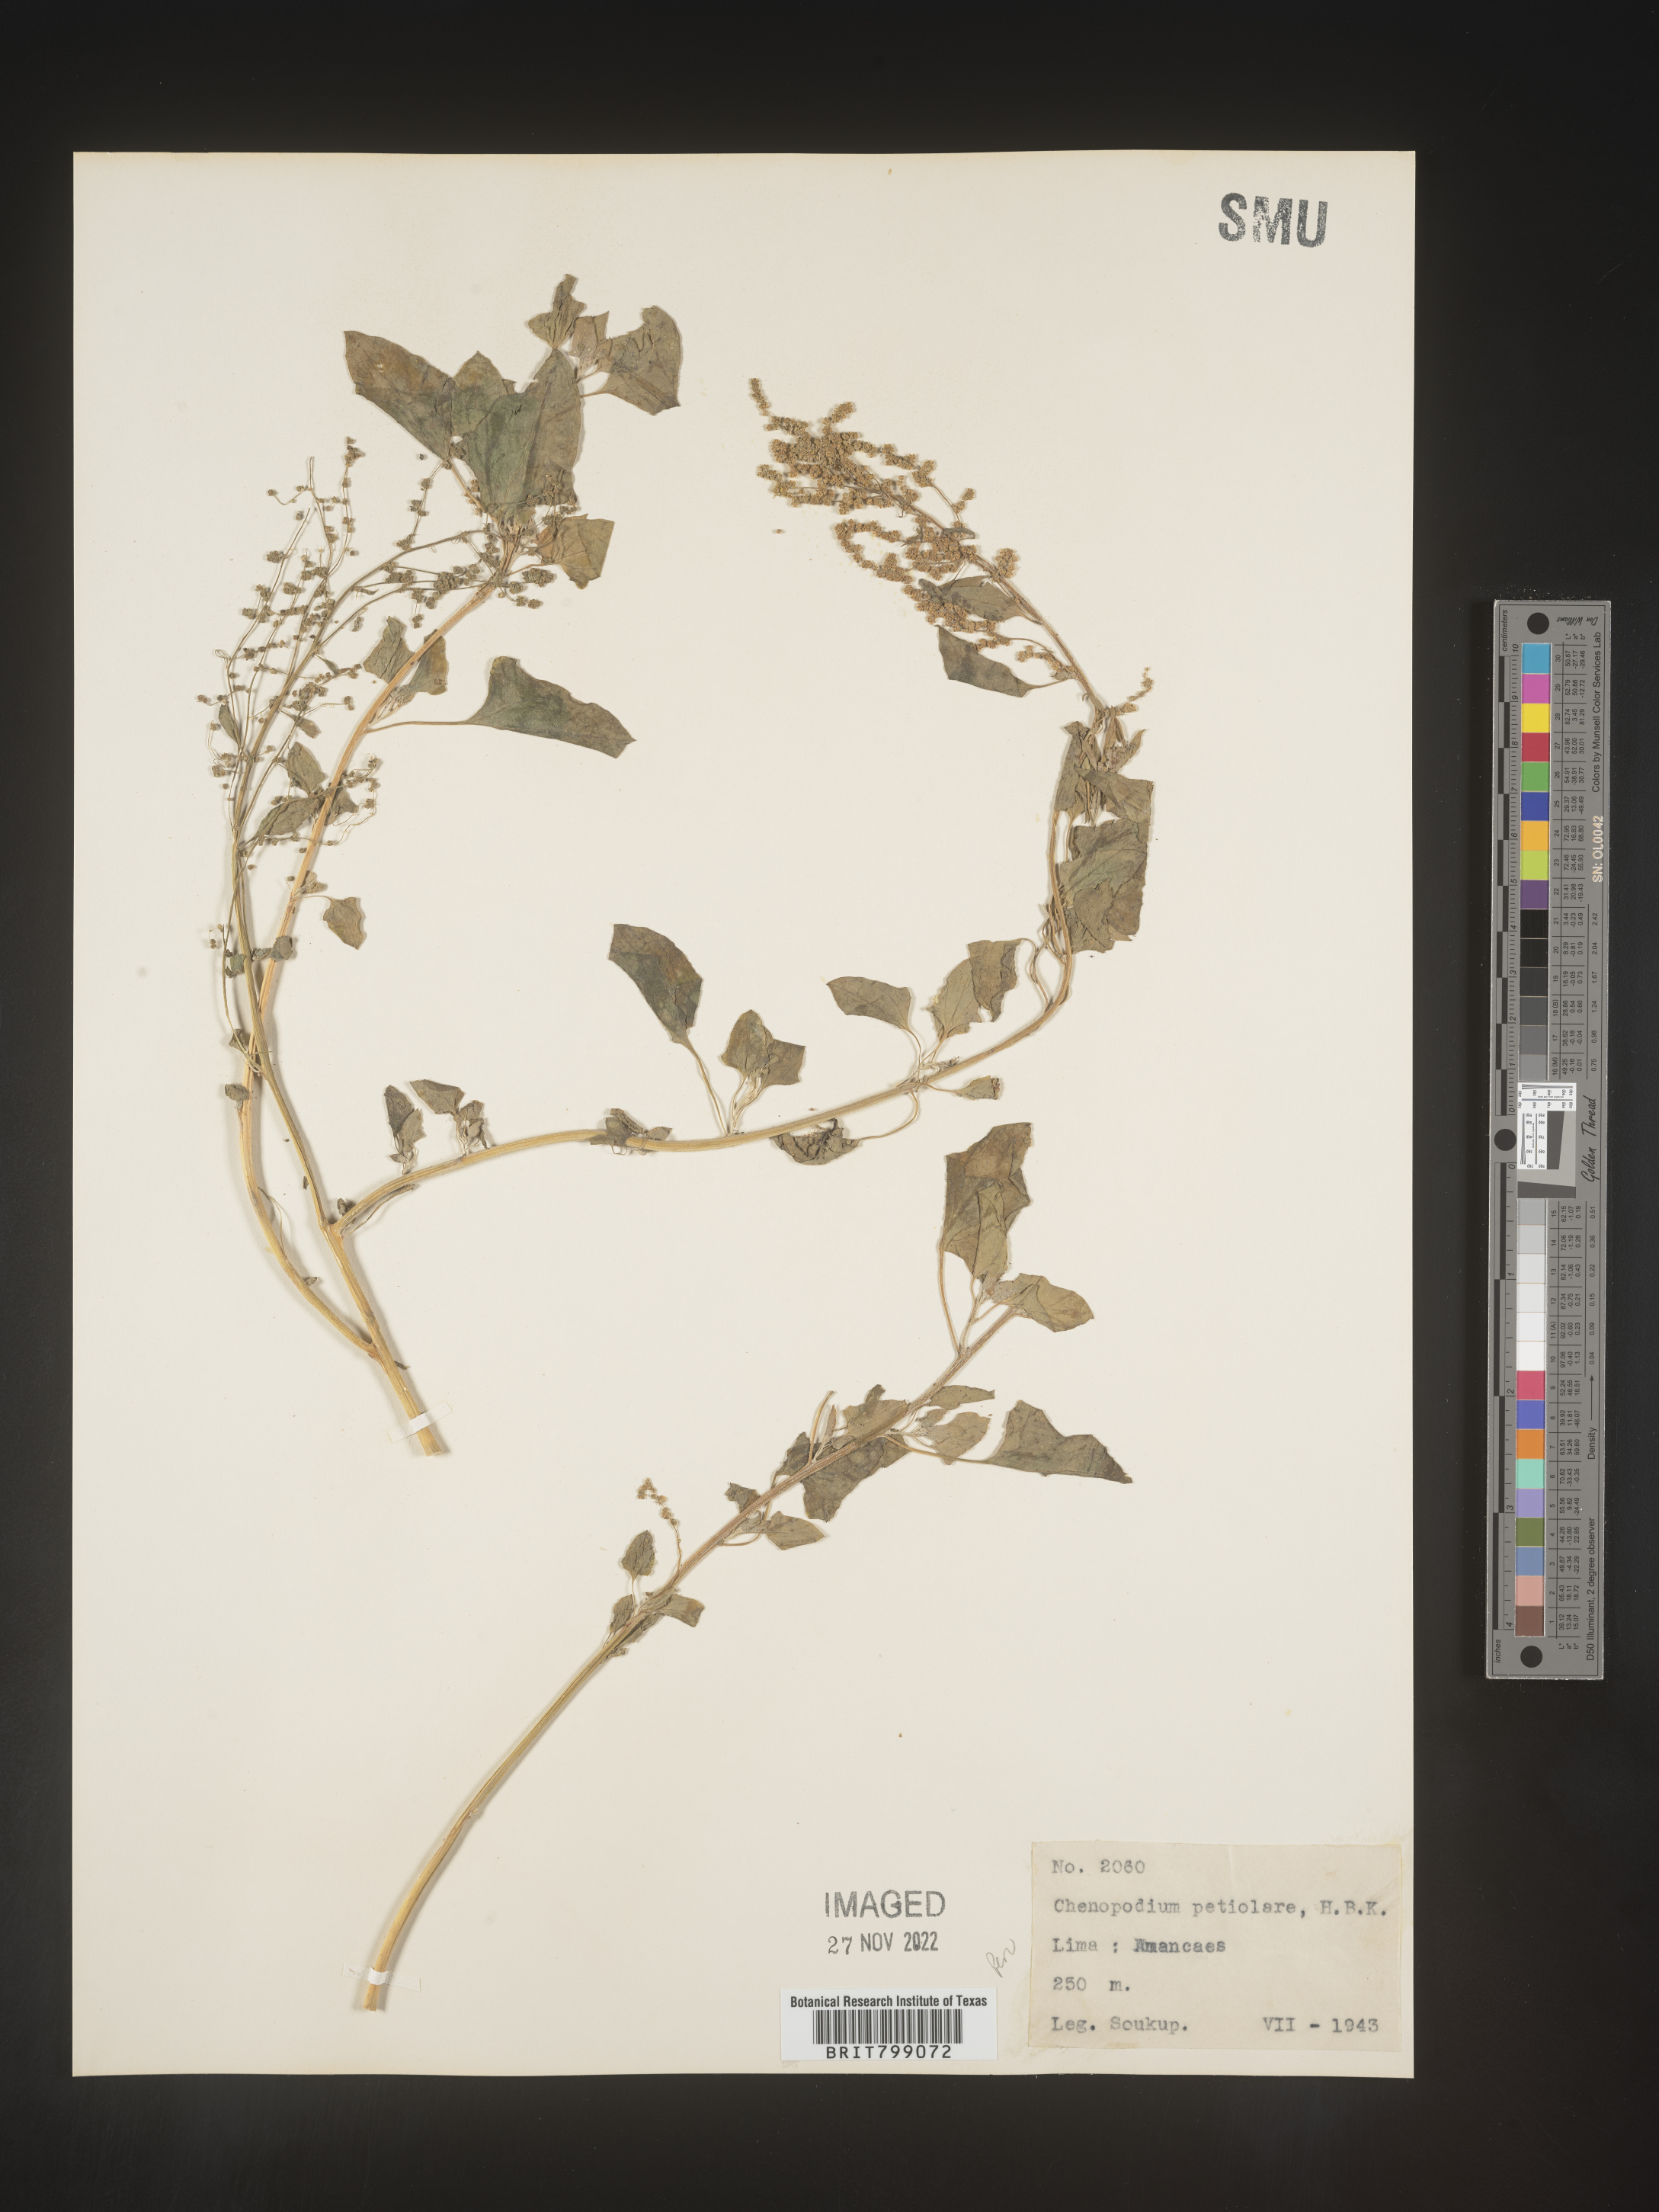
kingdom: Plantae
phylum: Tracheophyta
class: Magnoliopsida
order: Caryophyllales
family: Amaranthaceae
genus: Chenopodium
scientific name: Chenopodium
